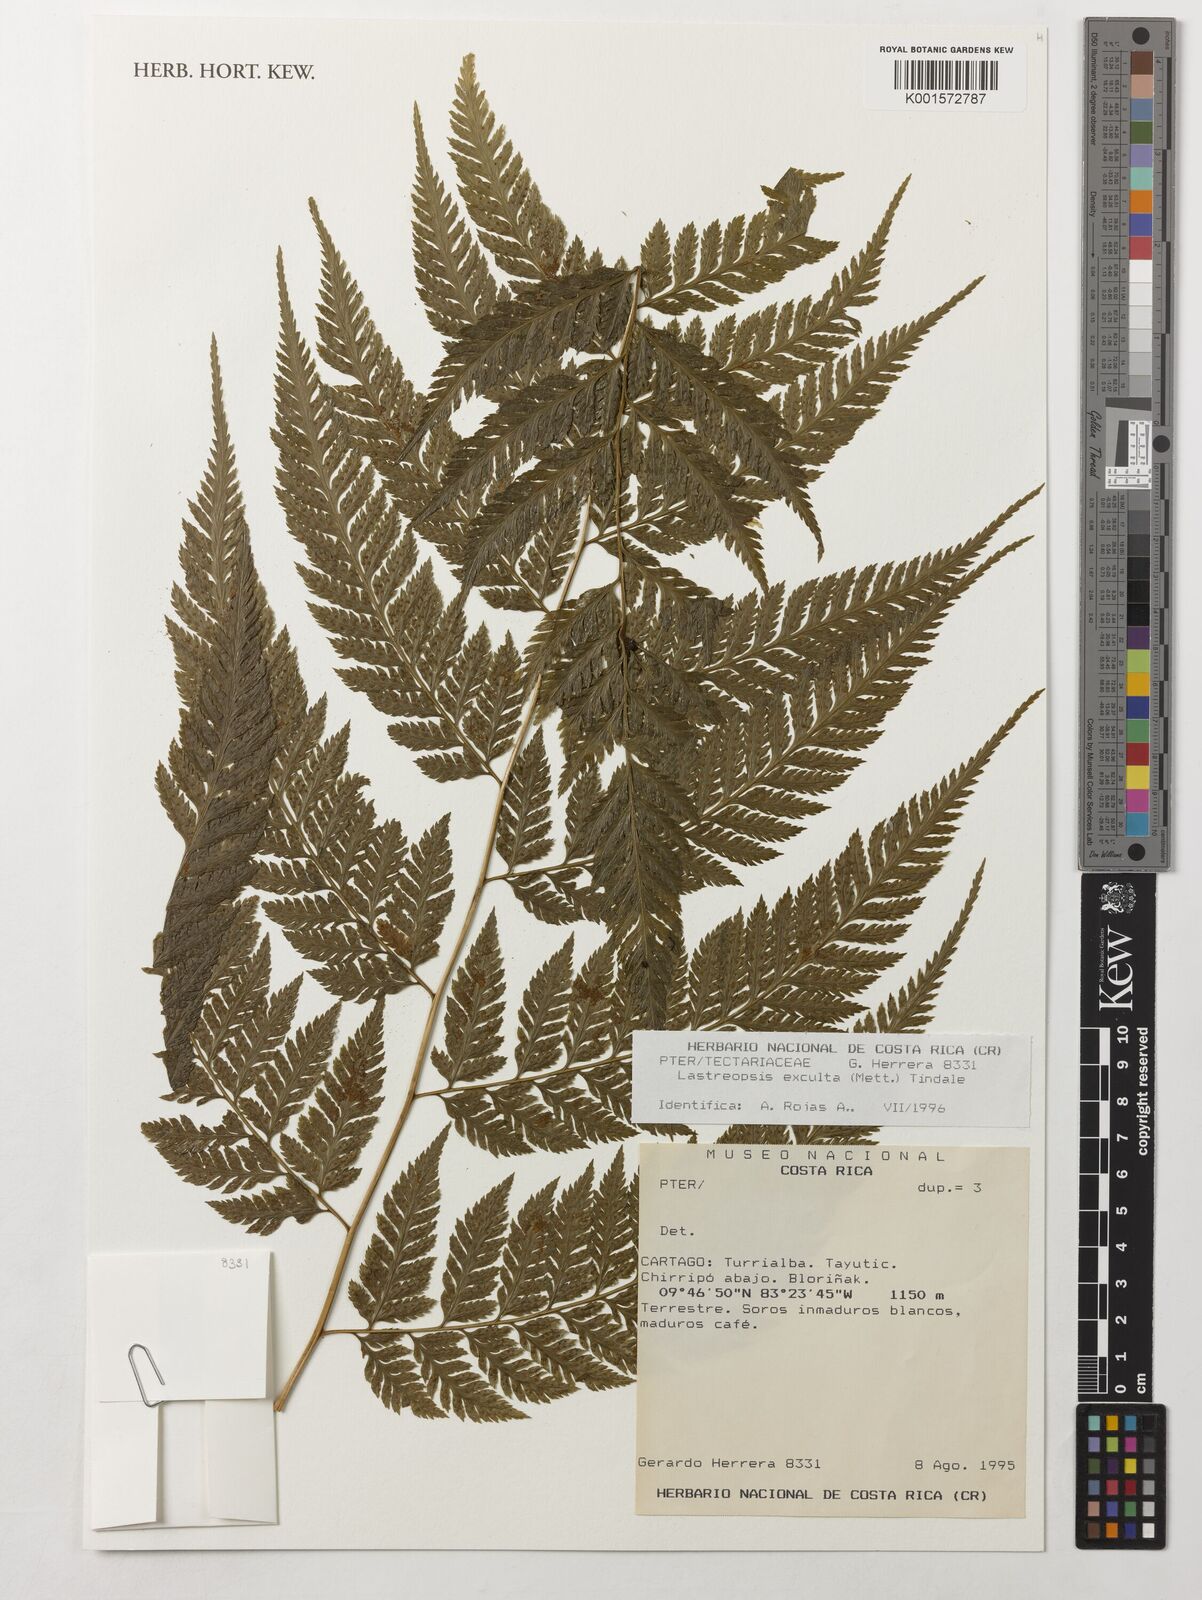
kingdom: Plantae
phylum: Tracheophyta
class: Polypodiopsida
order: Polypodiales
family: Dryopteridaceae
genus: Parapolystichum
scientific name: Parapolystichum excultum
